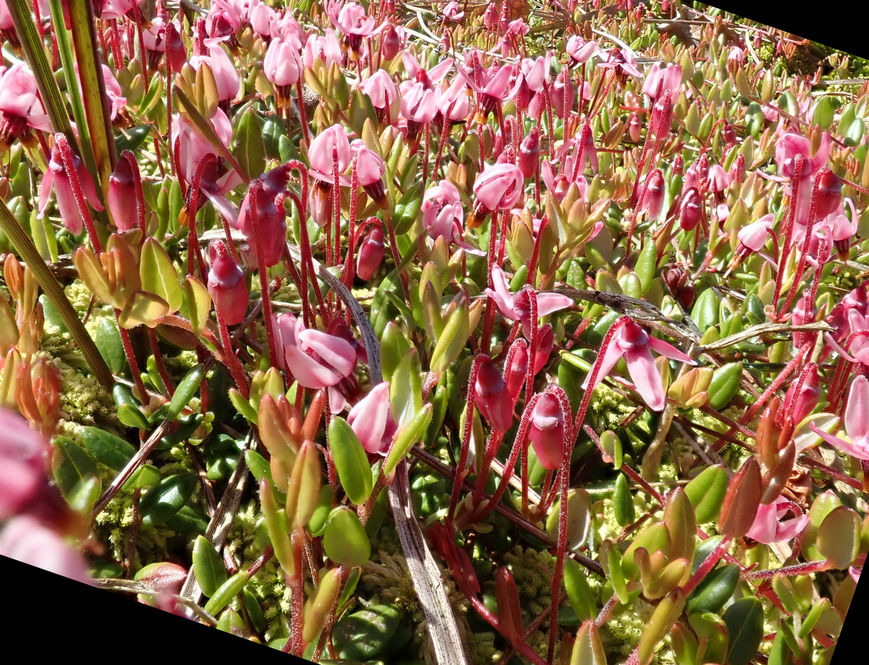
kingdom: Plantae
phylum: Tracheophyta
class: Magnoliopsida
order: Ericales
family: Ericaceae
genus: Vaccinium
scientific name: Vaccinium oxycoccos
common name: Tranebær
